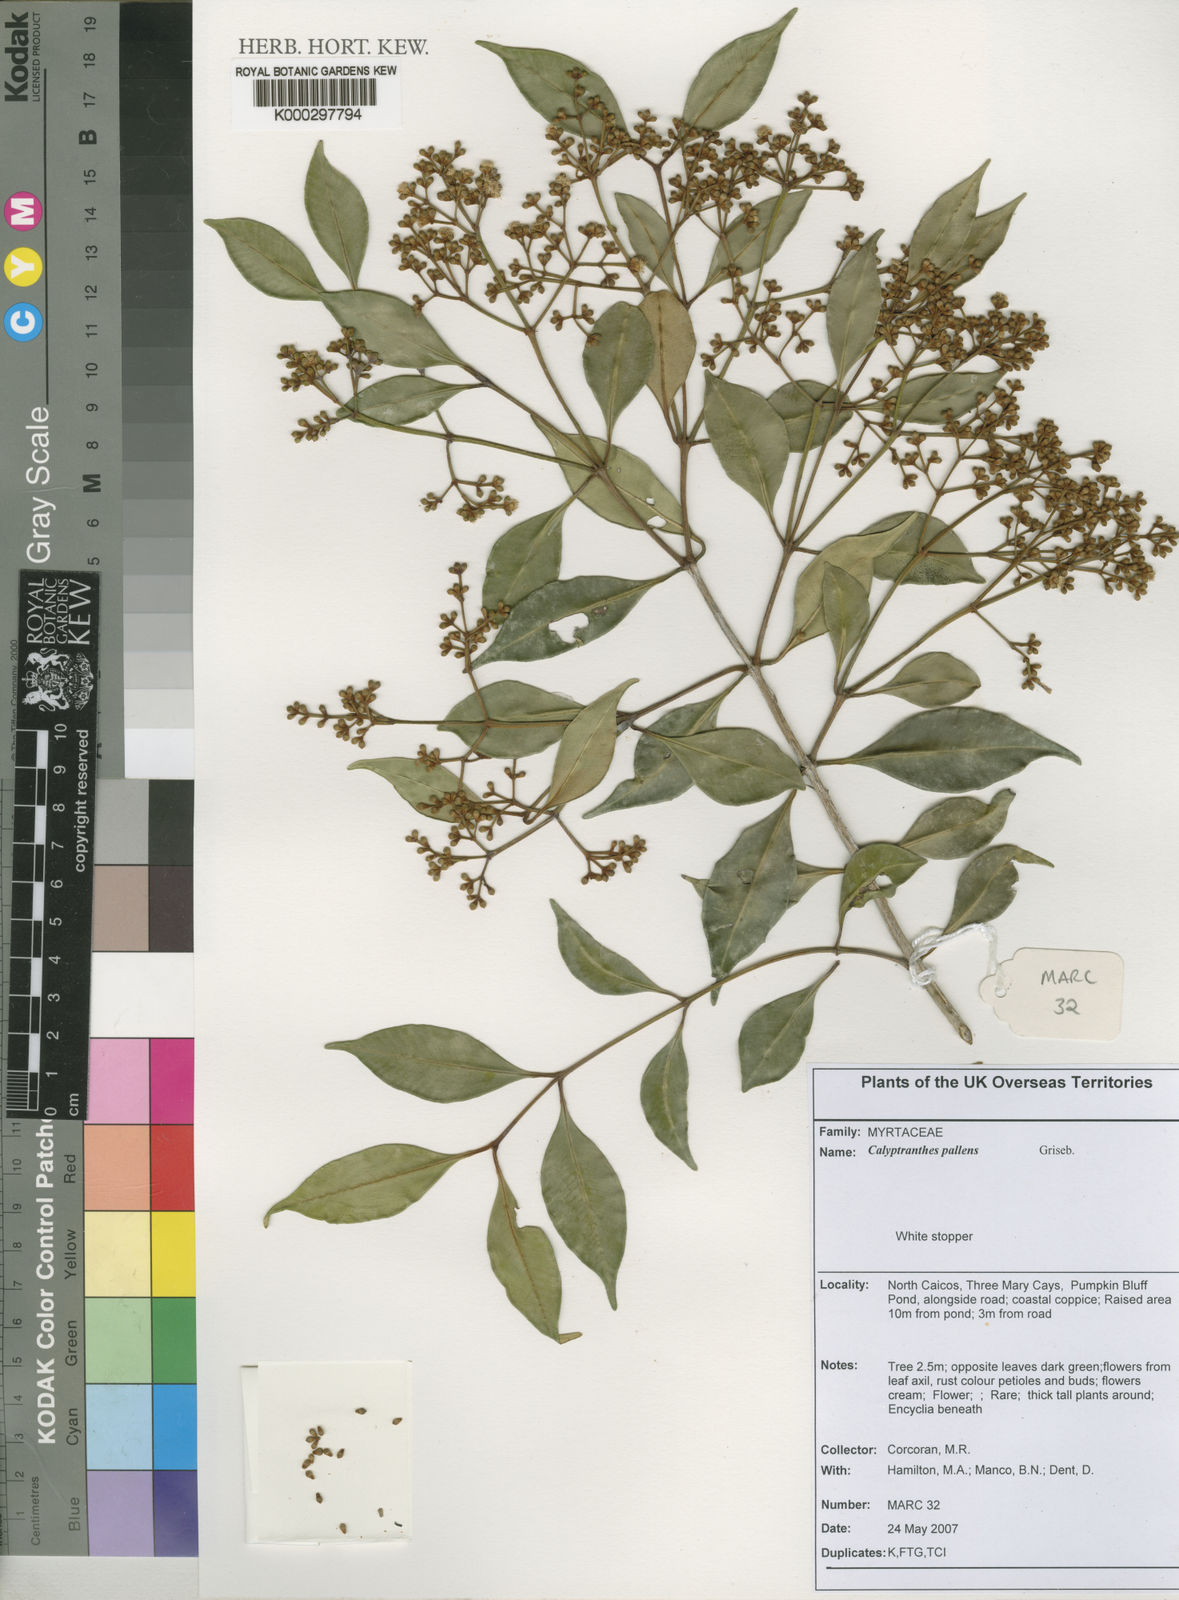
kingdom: Plantae
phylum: Tracheophyta
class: Magnoliopsida
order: Myrtales
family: Myrtaceae
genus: Myrcia
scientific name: Myrcia neopallens
